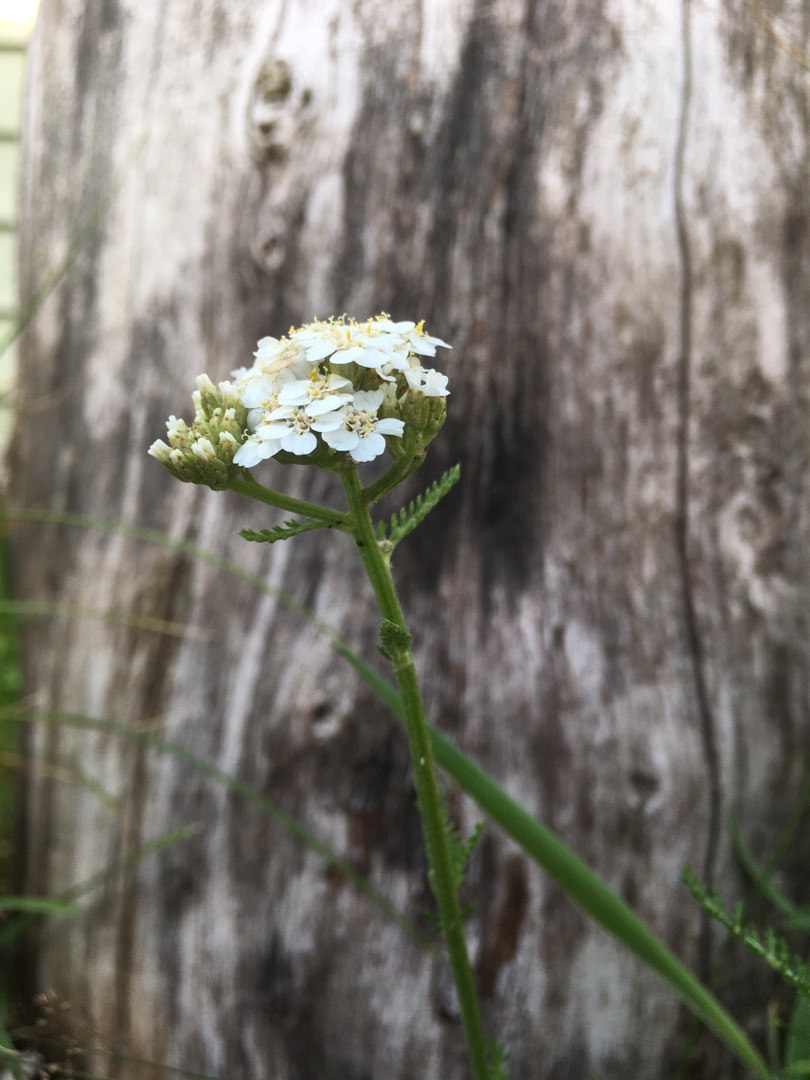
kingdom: Plantae
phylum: Tracheophyta
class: Magnoliopsida
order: Asterales
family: Asteraceae
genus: Achillea
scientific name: Achillea millefolium
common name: Almindelig røllike
